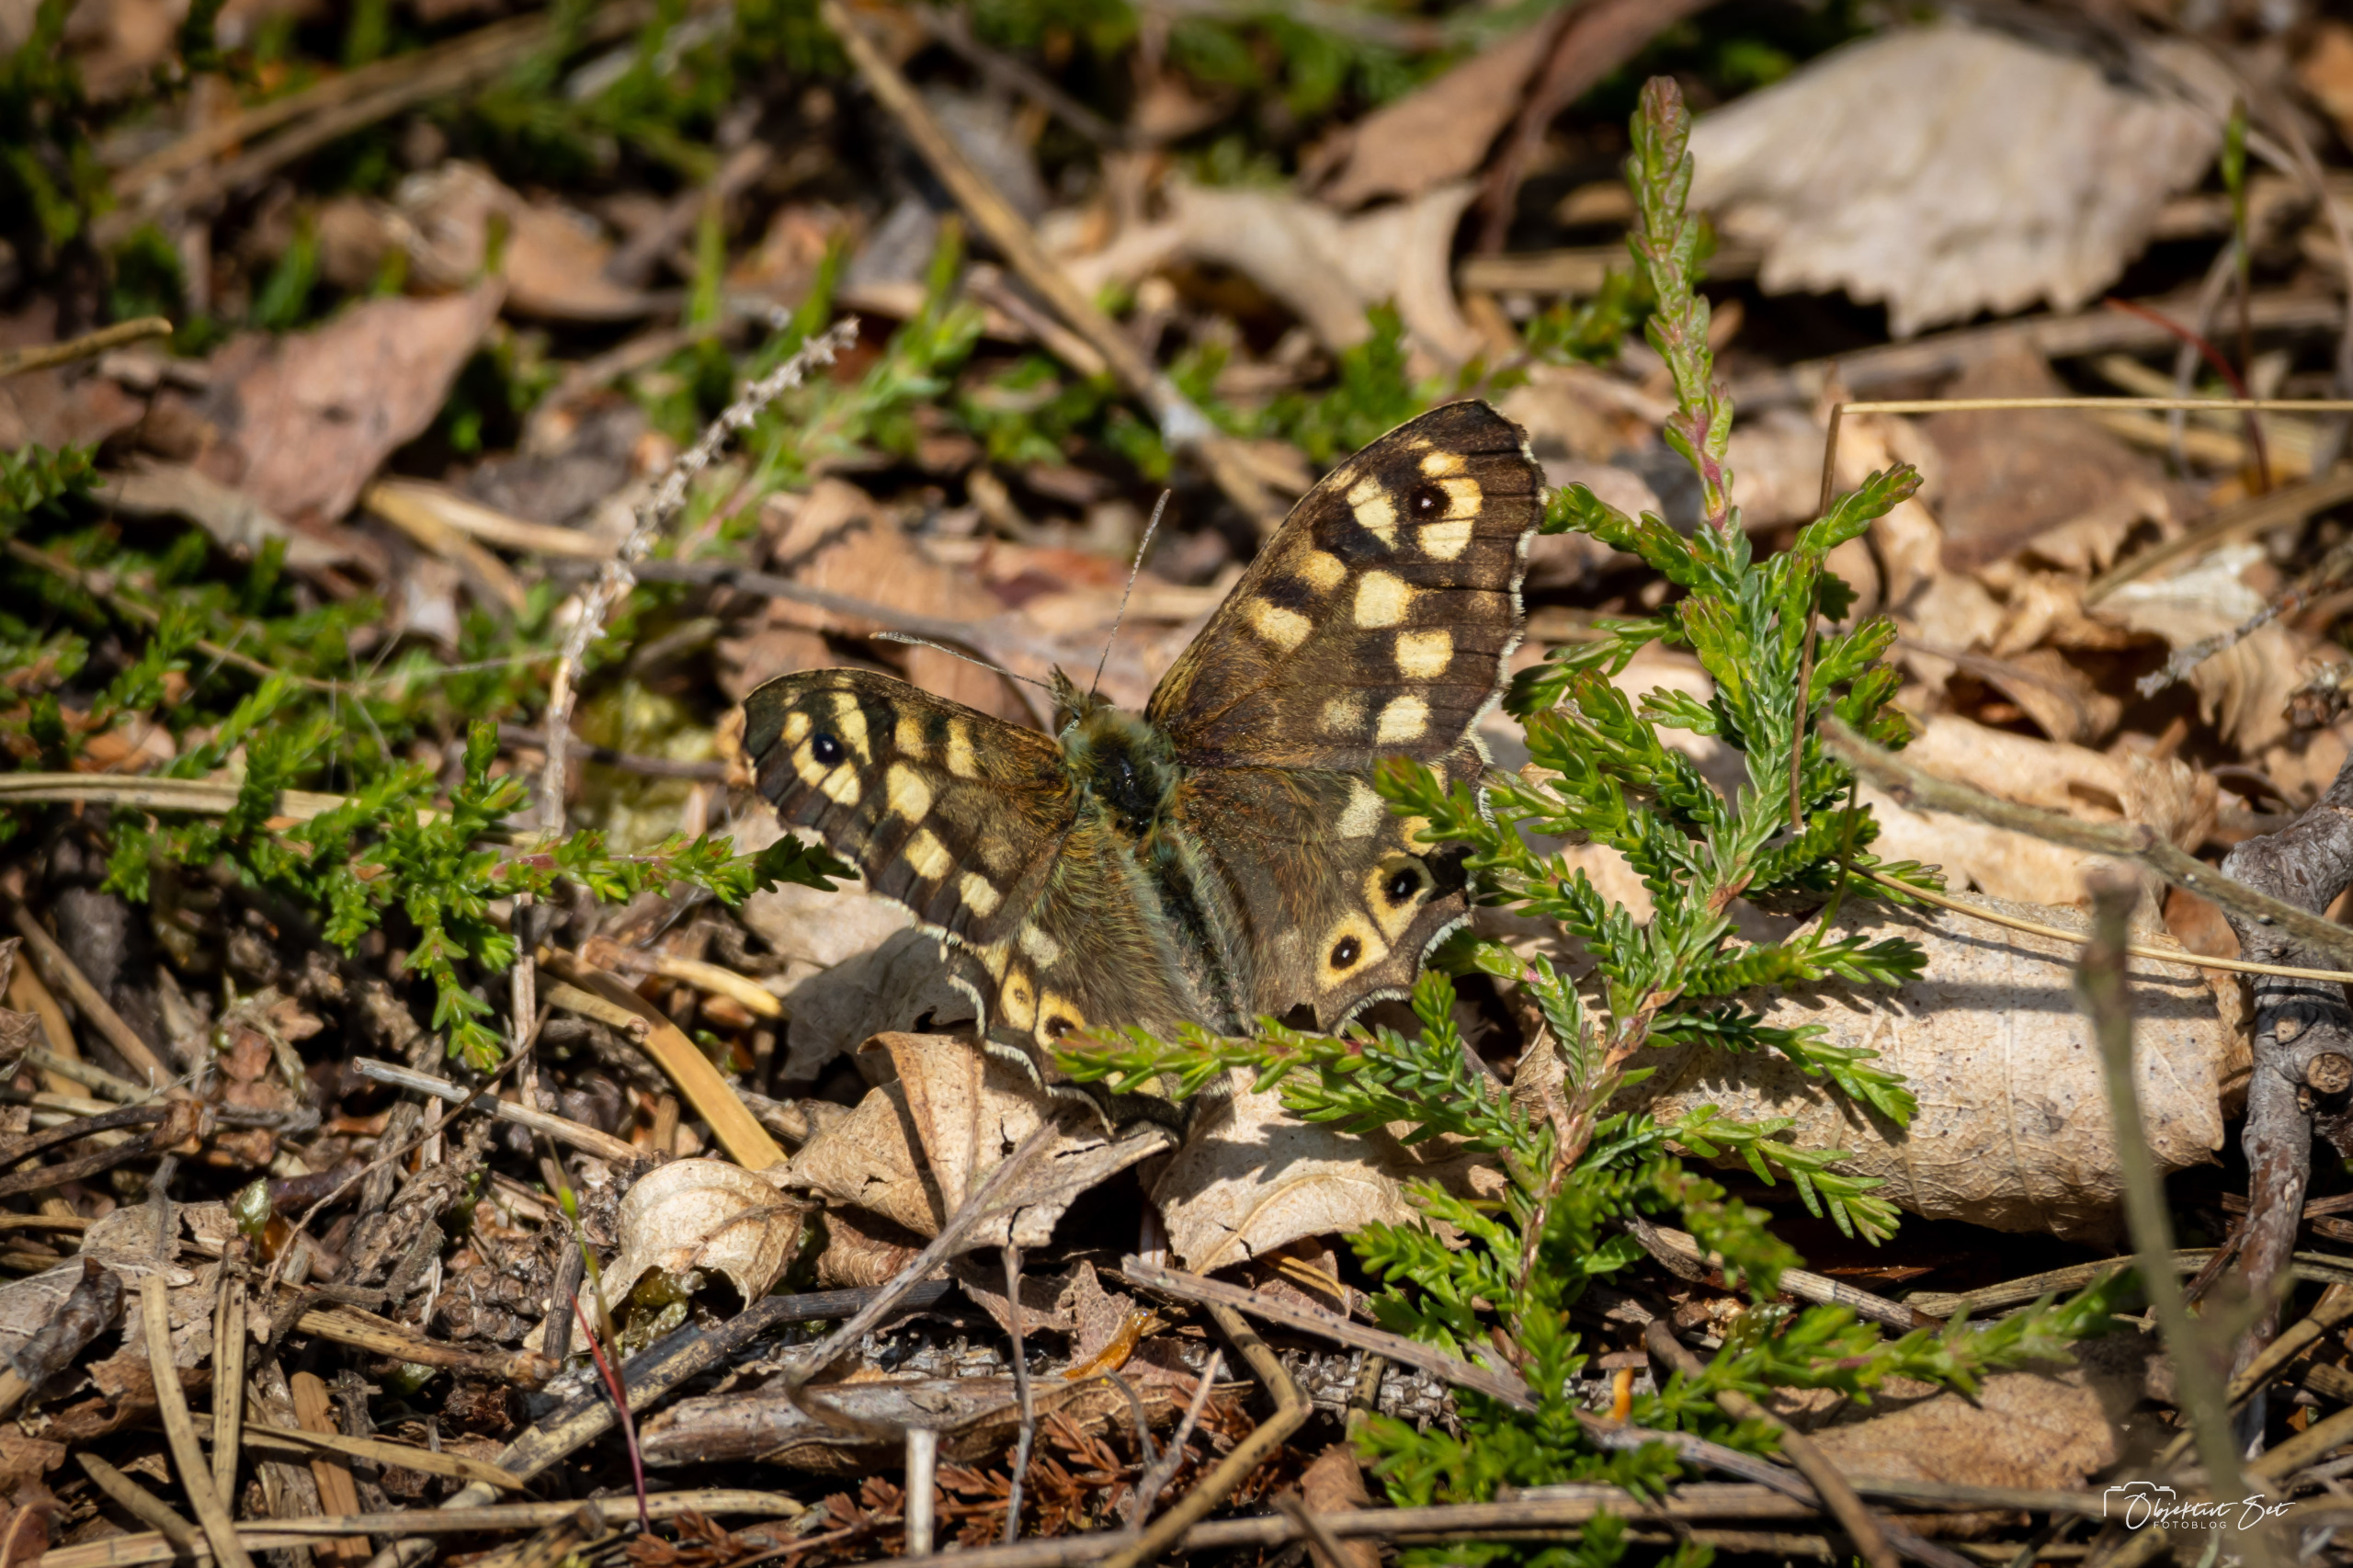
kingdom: Animalia
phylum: Arthropoda
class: Insecta
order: Lepidoptera
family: Nymphalidae
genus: Pararge
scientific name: Pararge aegeria
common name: Skovrandøje
